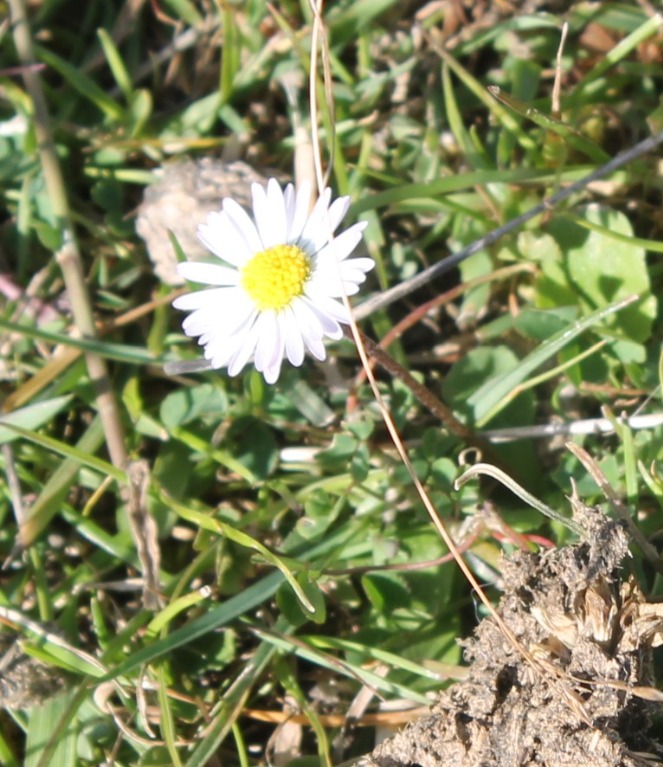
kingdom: Plantae
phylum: Tracheophyta
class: Magnoliopsida
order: Asterales
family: Asteraceae
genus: Bellis
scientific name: Bellis perennis
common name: Tusindfryd
